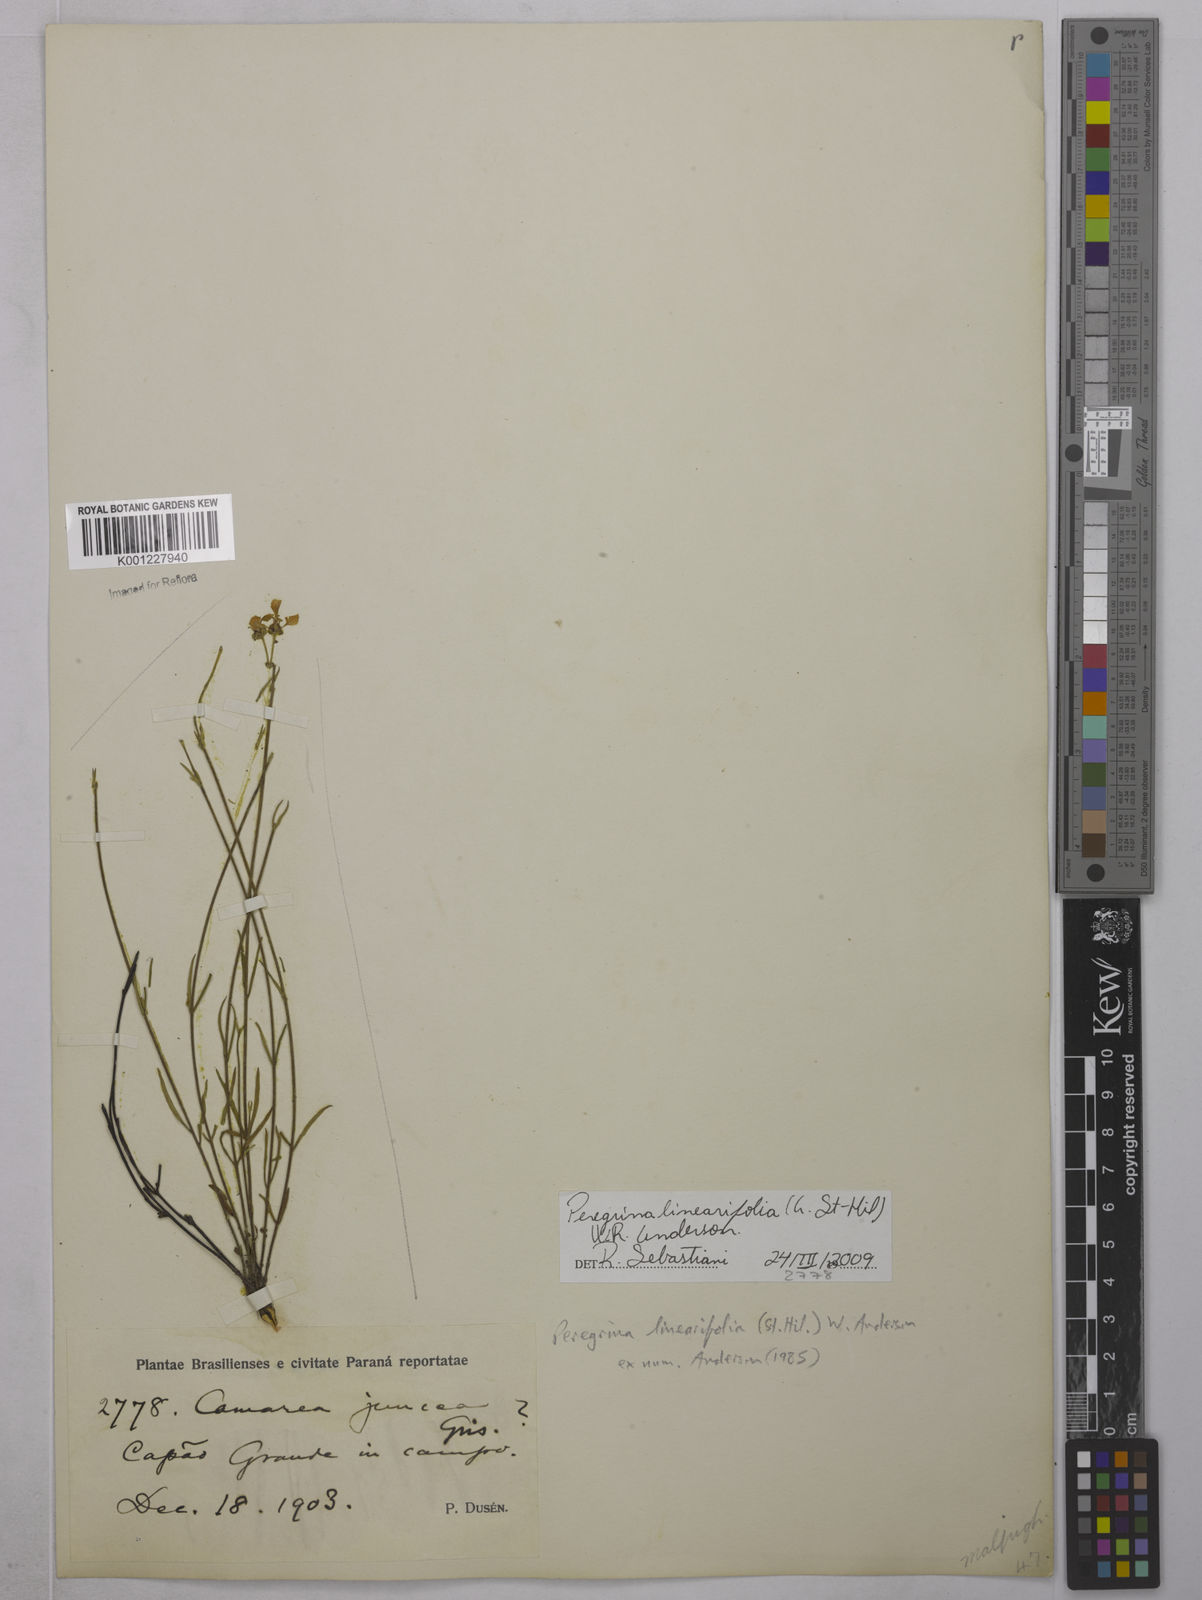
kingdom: Plantae
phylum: Tracheophyta
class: Magnoliopsida
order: Malpighiales
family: Malpighiaceae
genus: Janusia
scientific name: Janusia
